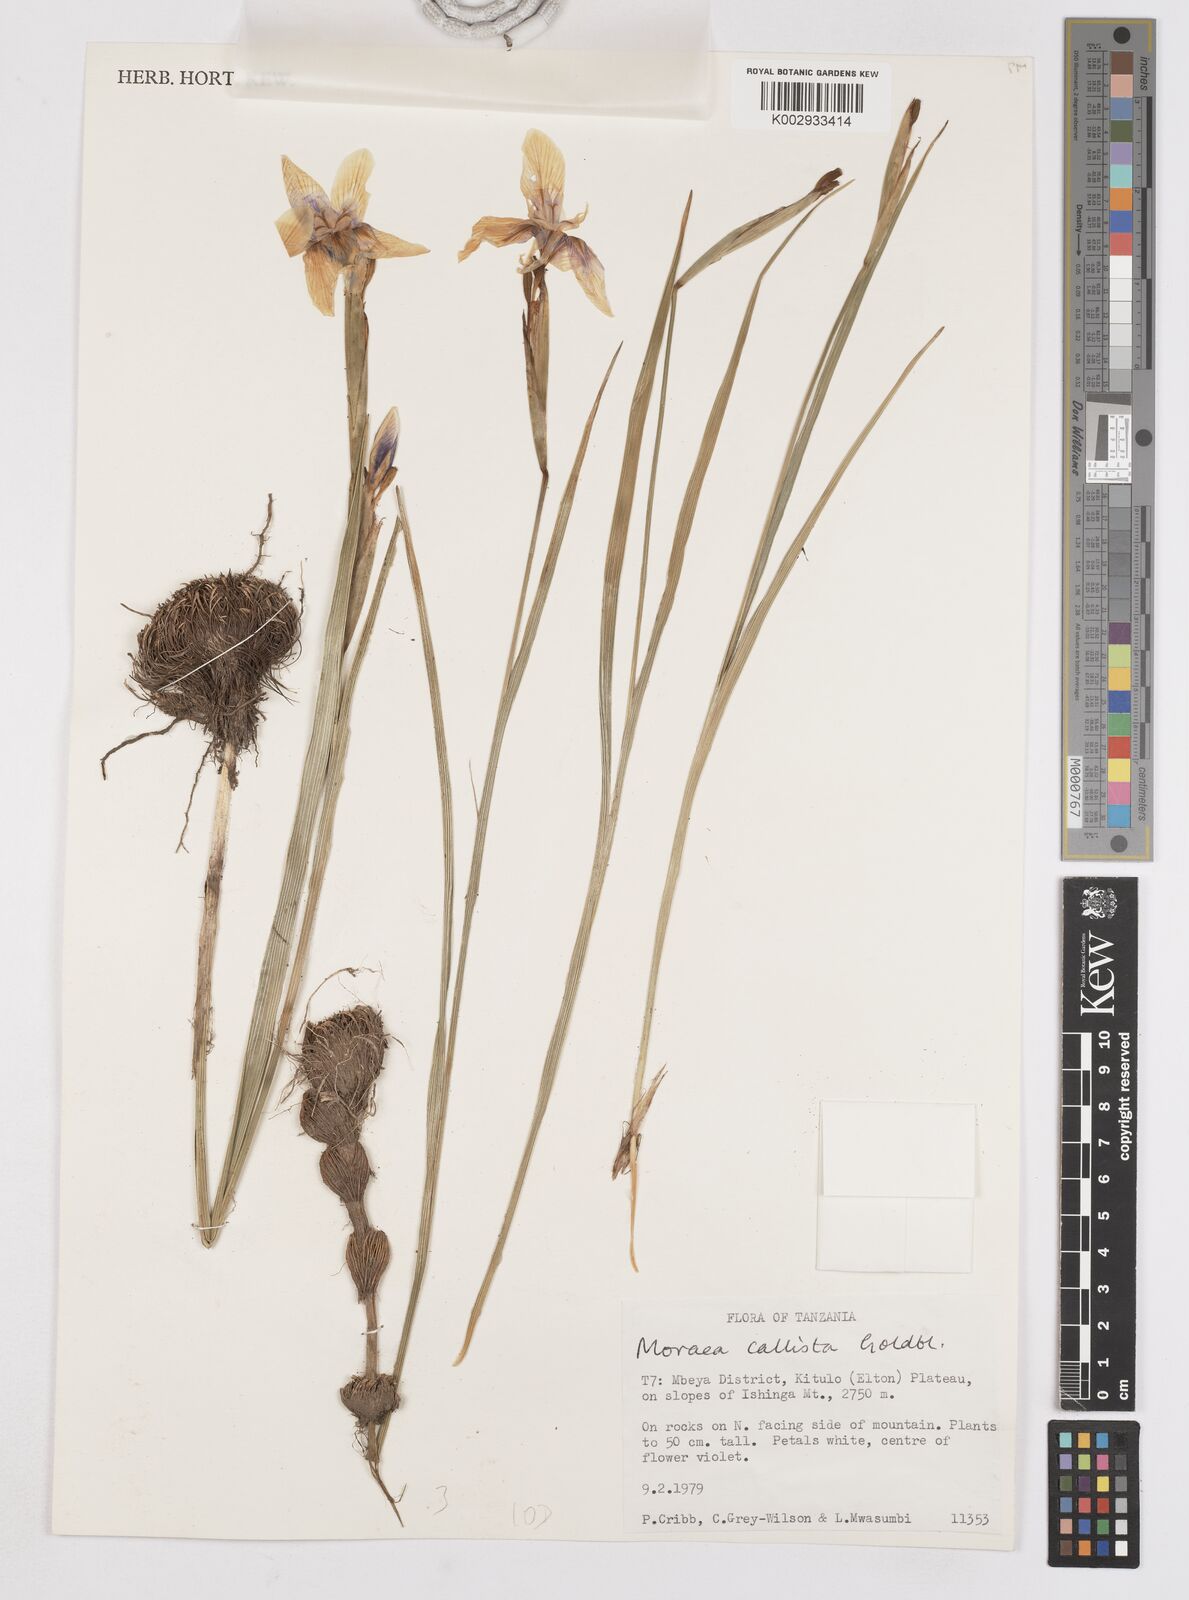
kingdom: Plantae
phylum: Tracheophyta
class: Liliopsida
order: Asparagales
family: Iridaceae
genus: Moraea
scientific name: Moraea callista
